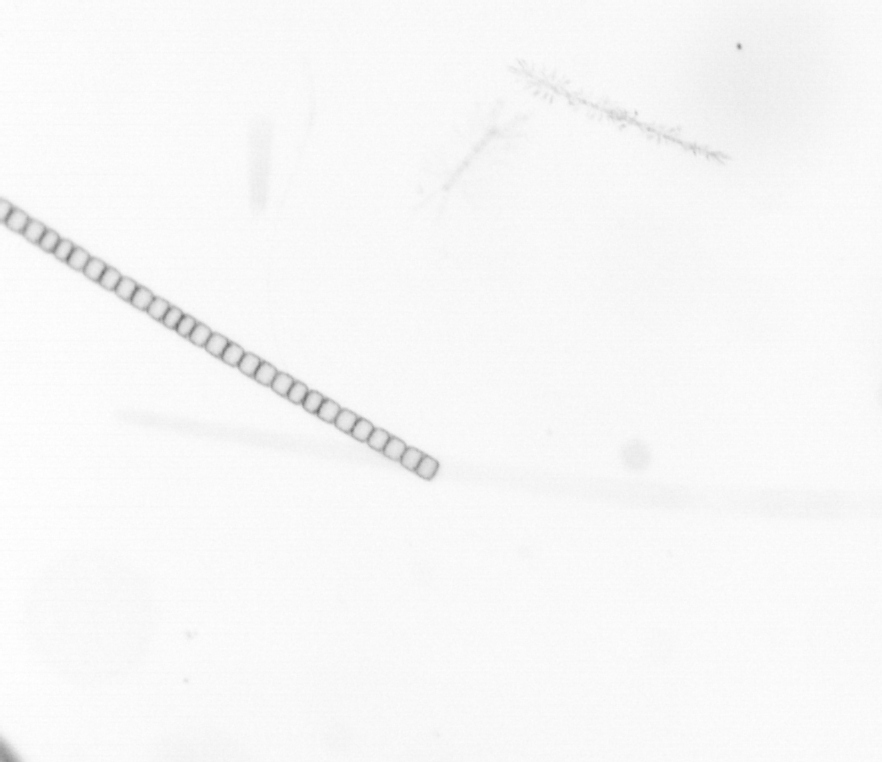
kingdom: Chromista
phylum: Ochrophyta
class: Bacillariophyceae
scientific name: Bacillariophyceae
